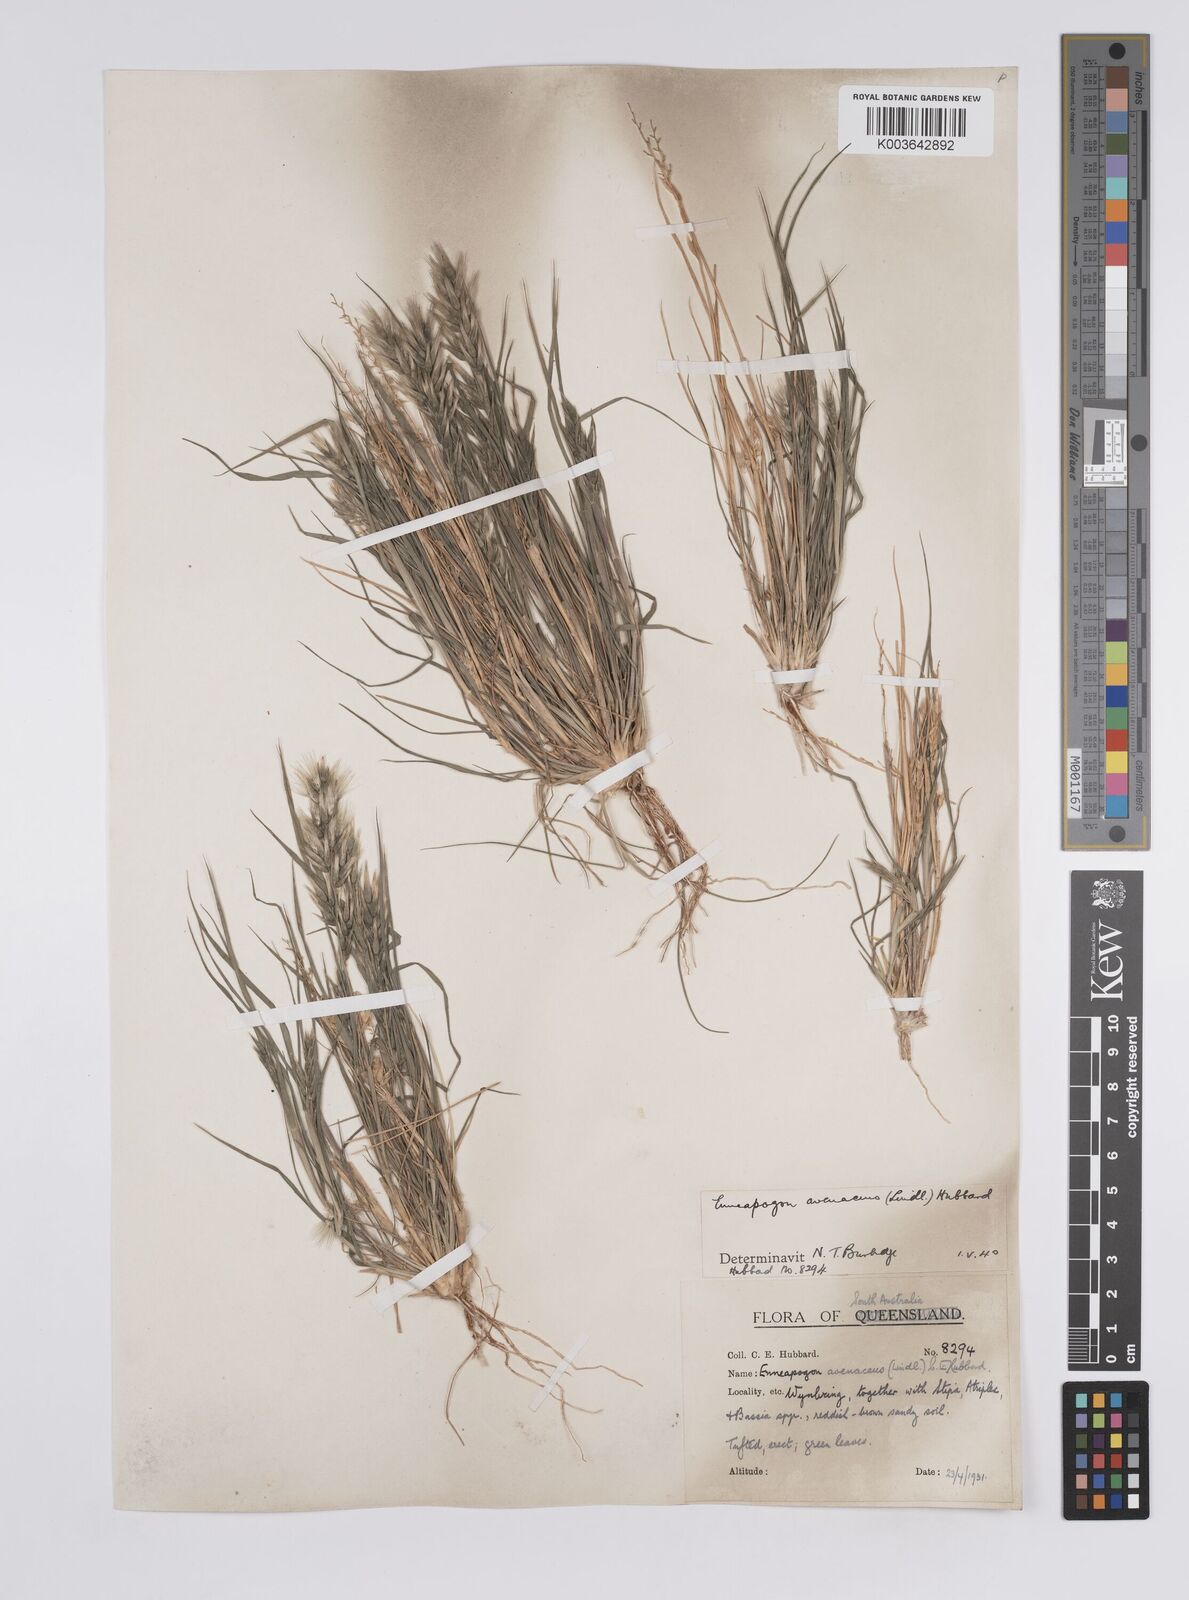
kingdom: Plantae
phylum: Tracheophyta
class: Liliopsida
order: Poales
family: Poaceae
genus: Enneapogon
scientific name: Enneapogon avenaceus
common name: Hairy oat grass
